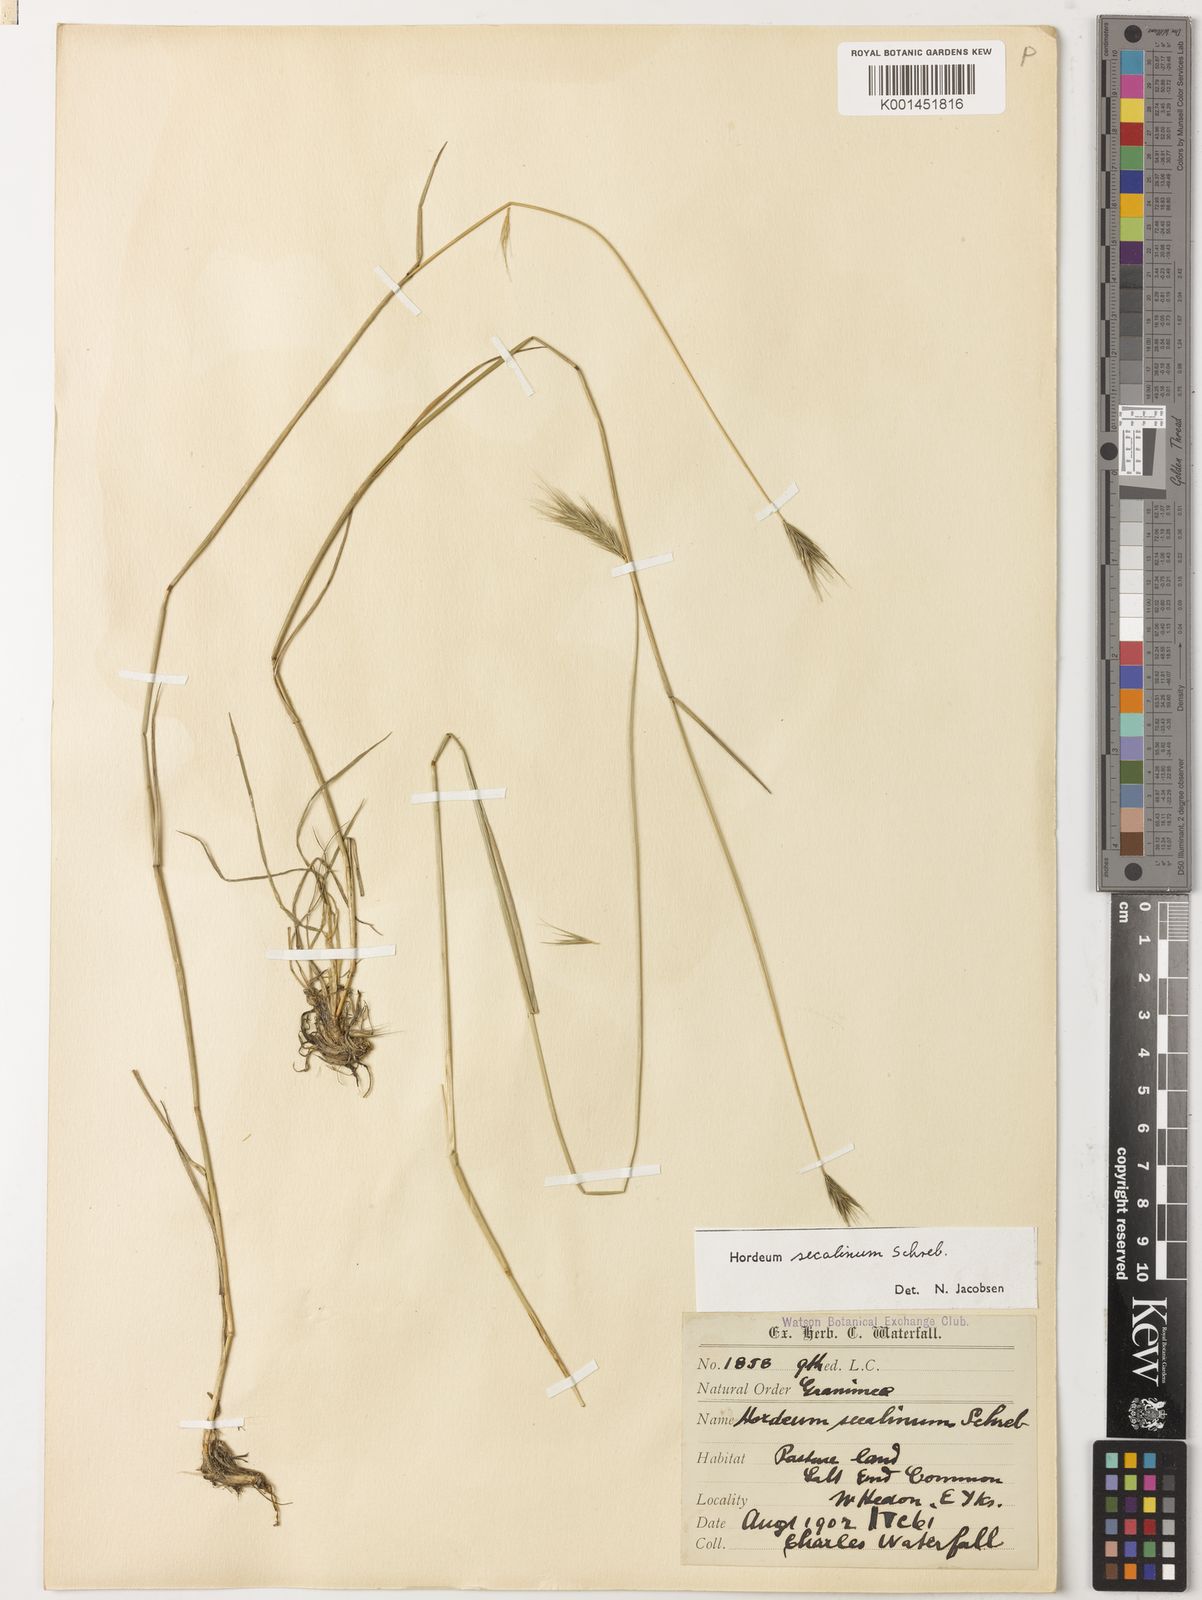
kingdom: Plantae
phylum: Tracheophyta
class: Liliopsida
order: Poales
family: Poaceae
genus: Hordeum
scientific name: Hordeum secalinum
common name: Meadow barley
